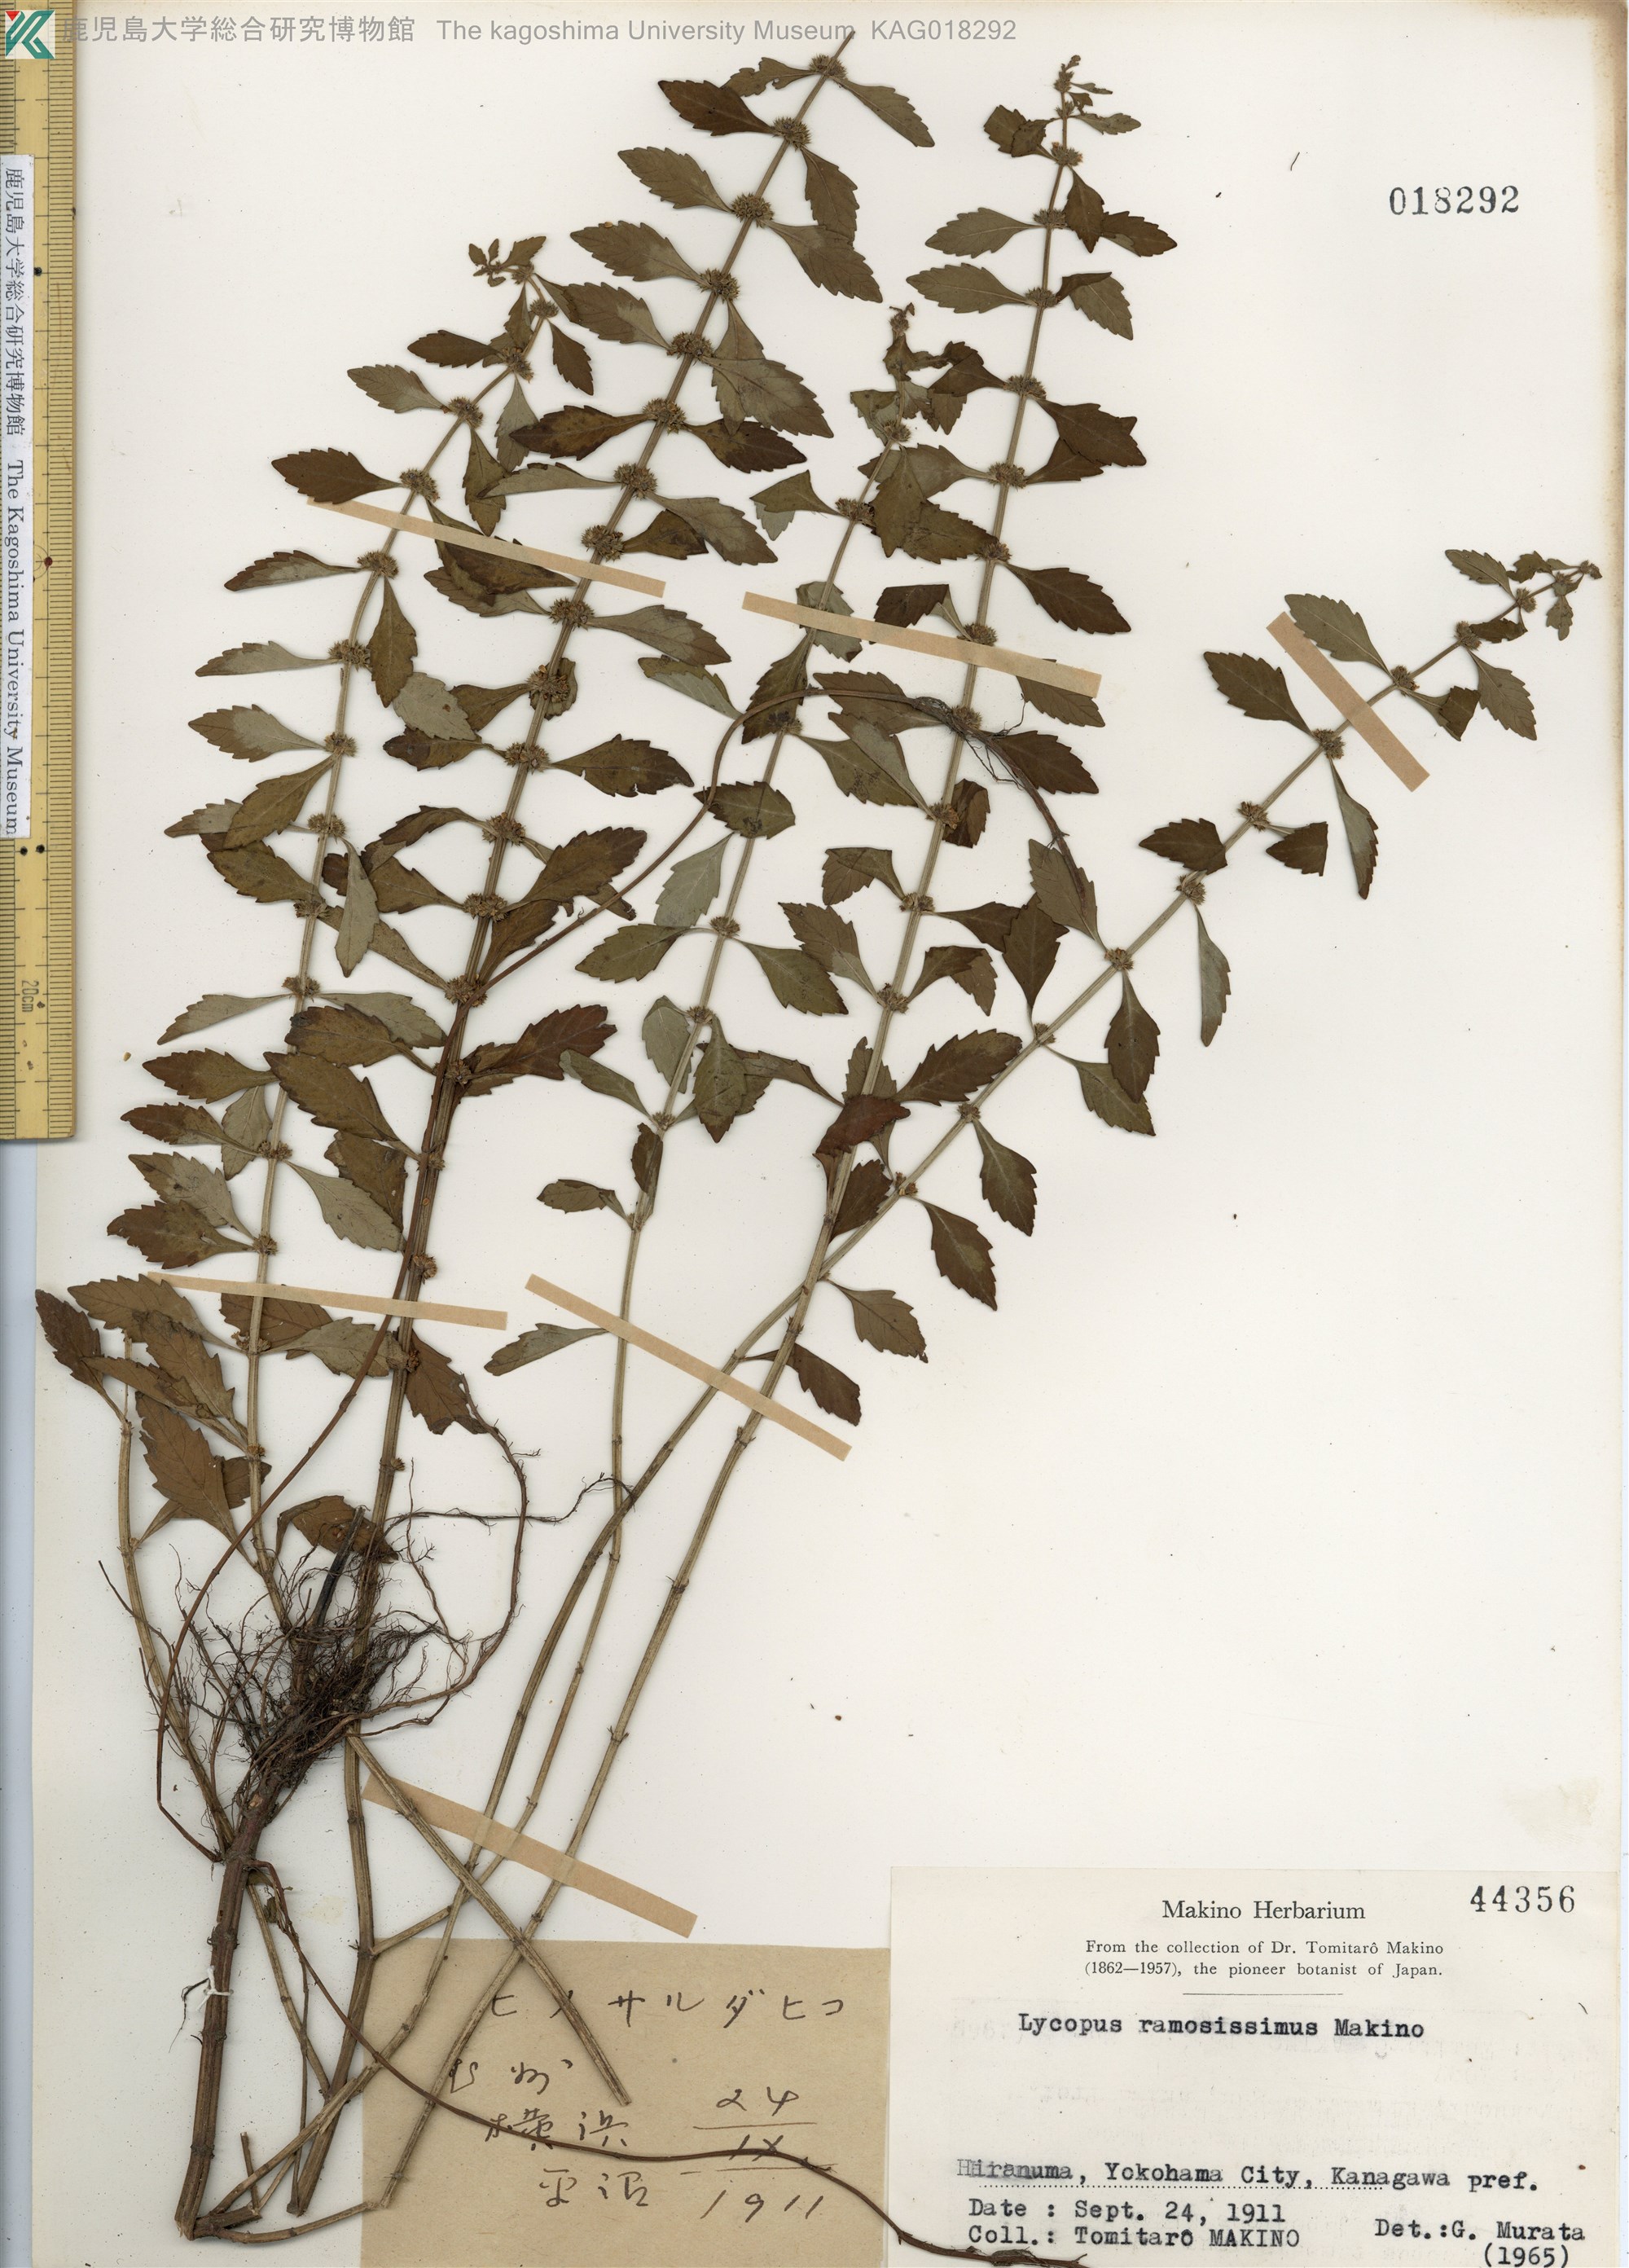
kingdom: Plantae
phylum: Tracheophyta
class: Magnoliopsida
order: Lamiales
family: Lamiaceae
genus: Lycopus
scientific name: Lycopus cavaleriei
